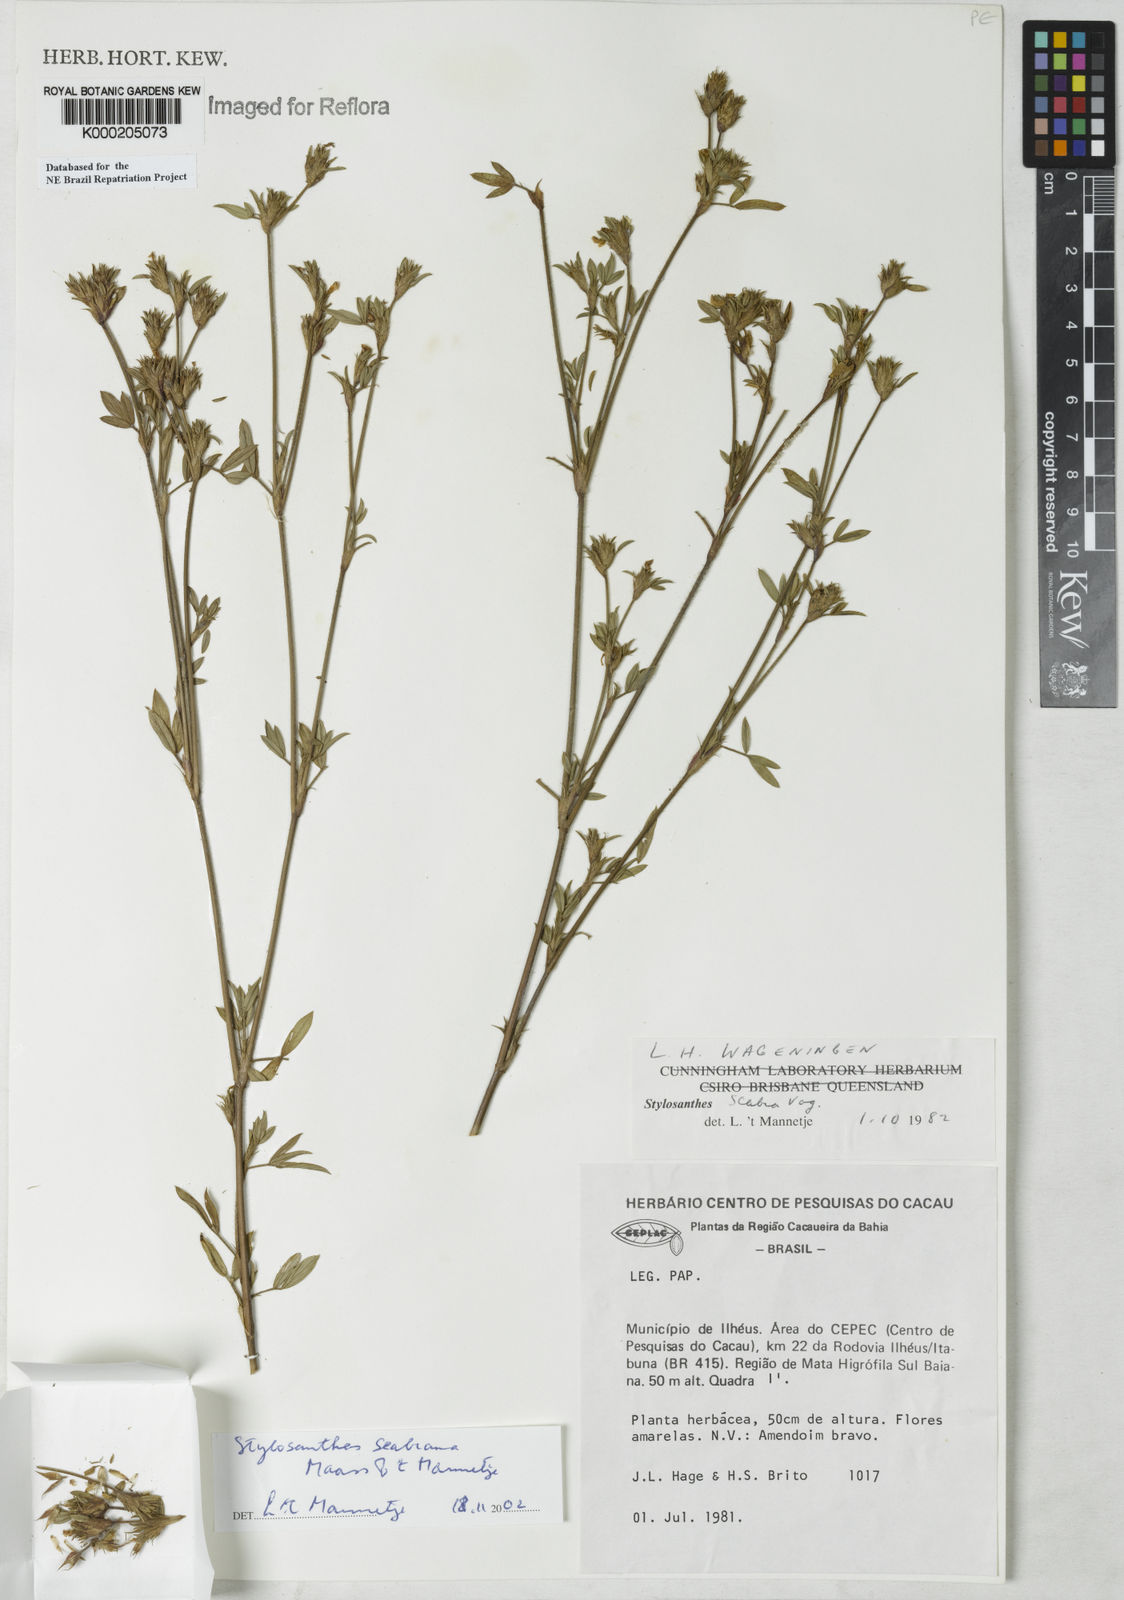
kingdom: Plantae
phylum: Tracheophyta
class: Magnoliopsida
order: Fabales
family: Fabaceae
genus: Stylosanthes
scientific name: Stylosanthes scabra
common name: Pencilflower
